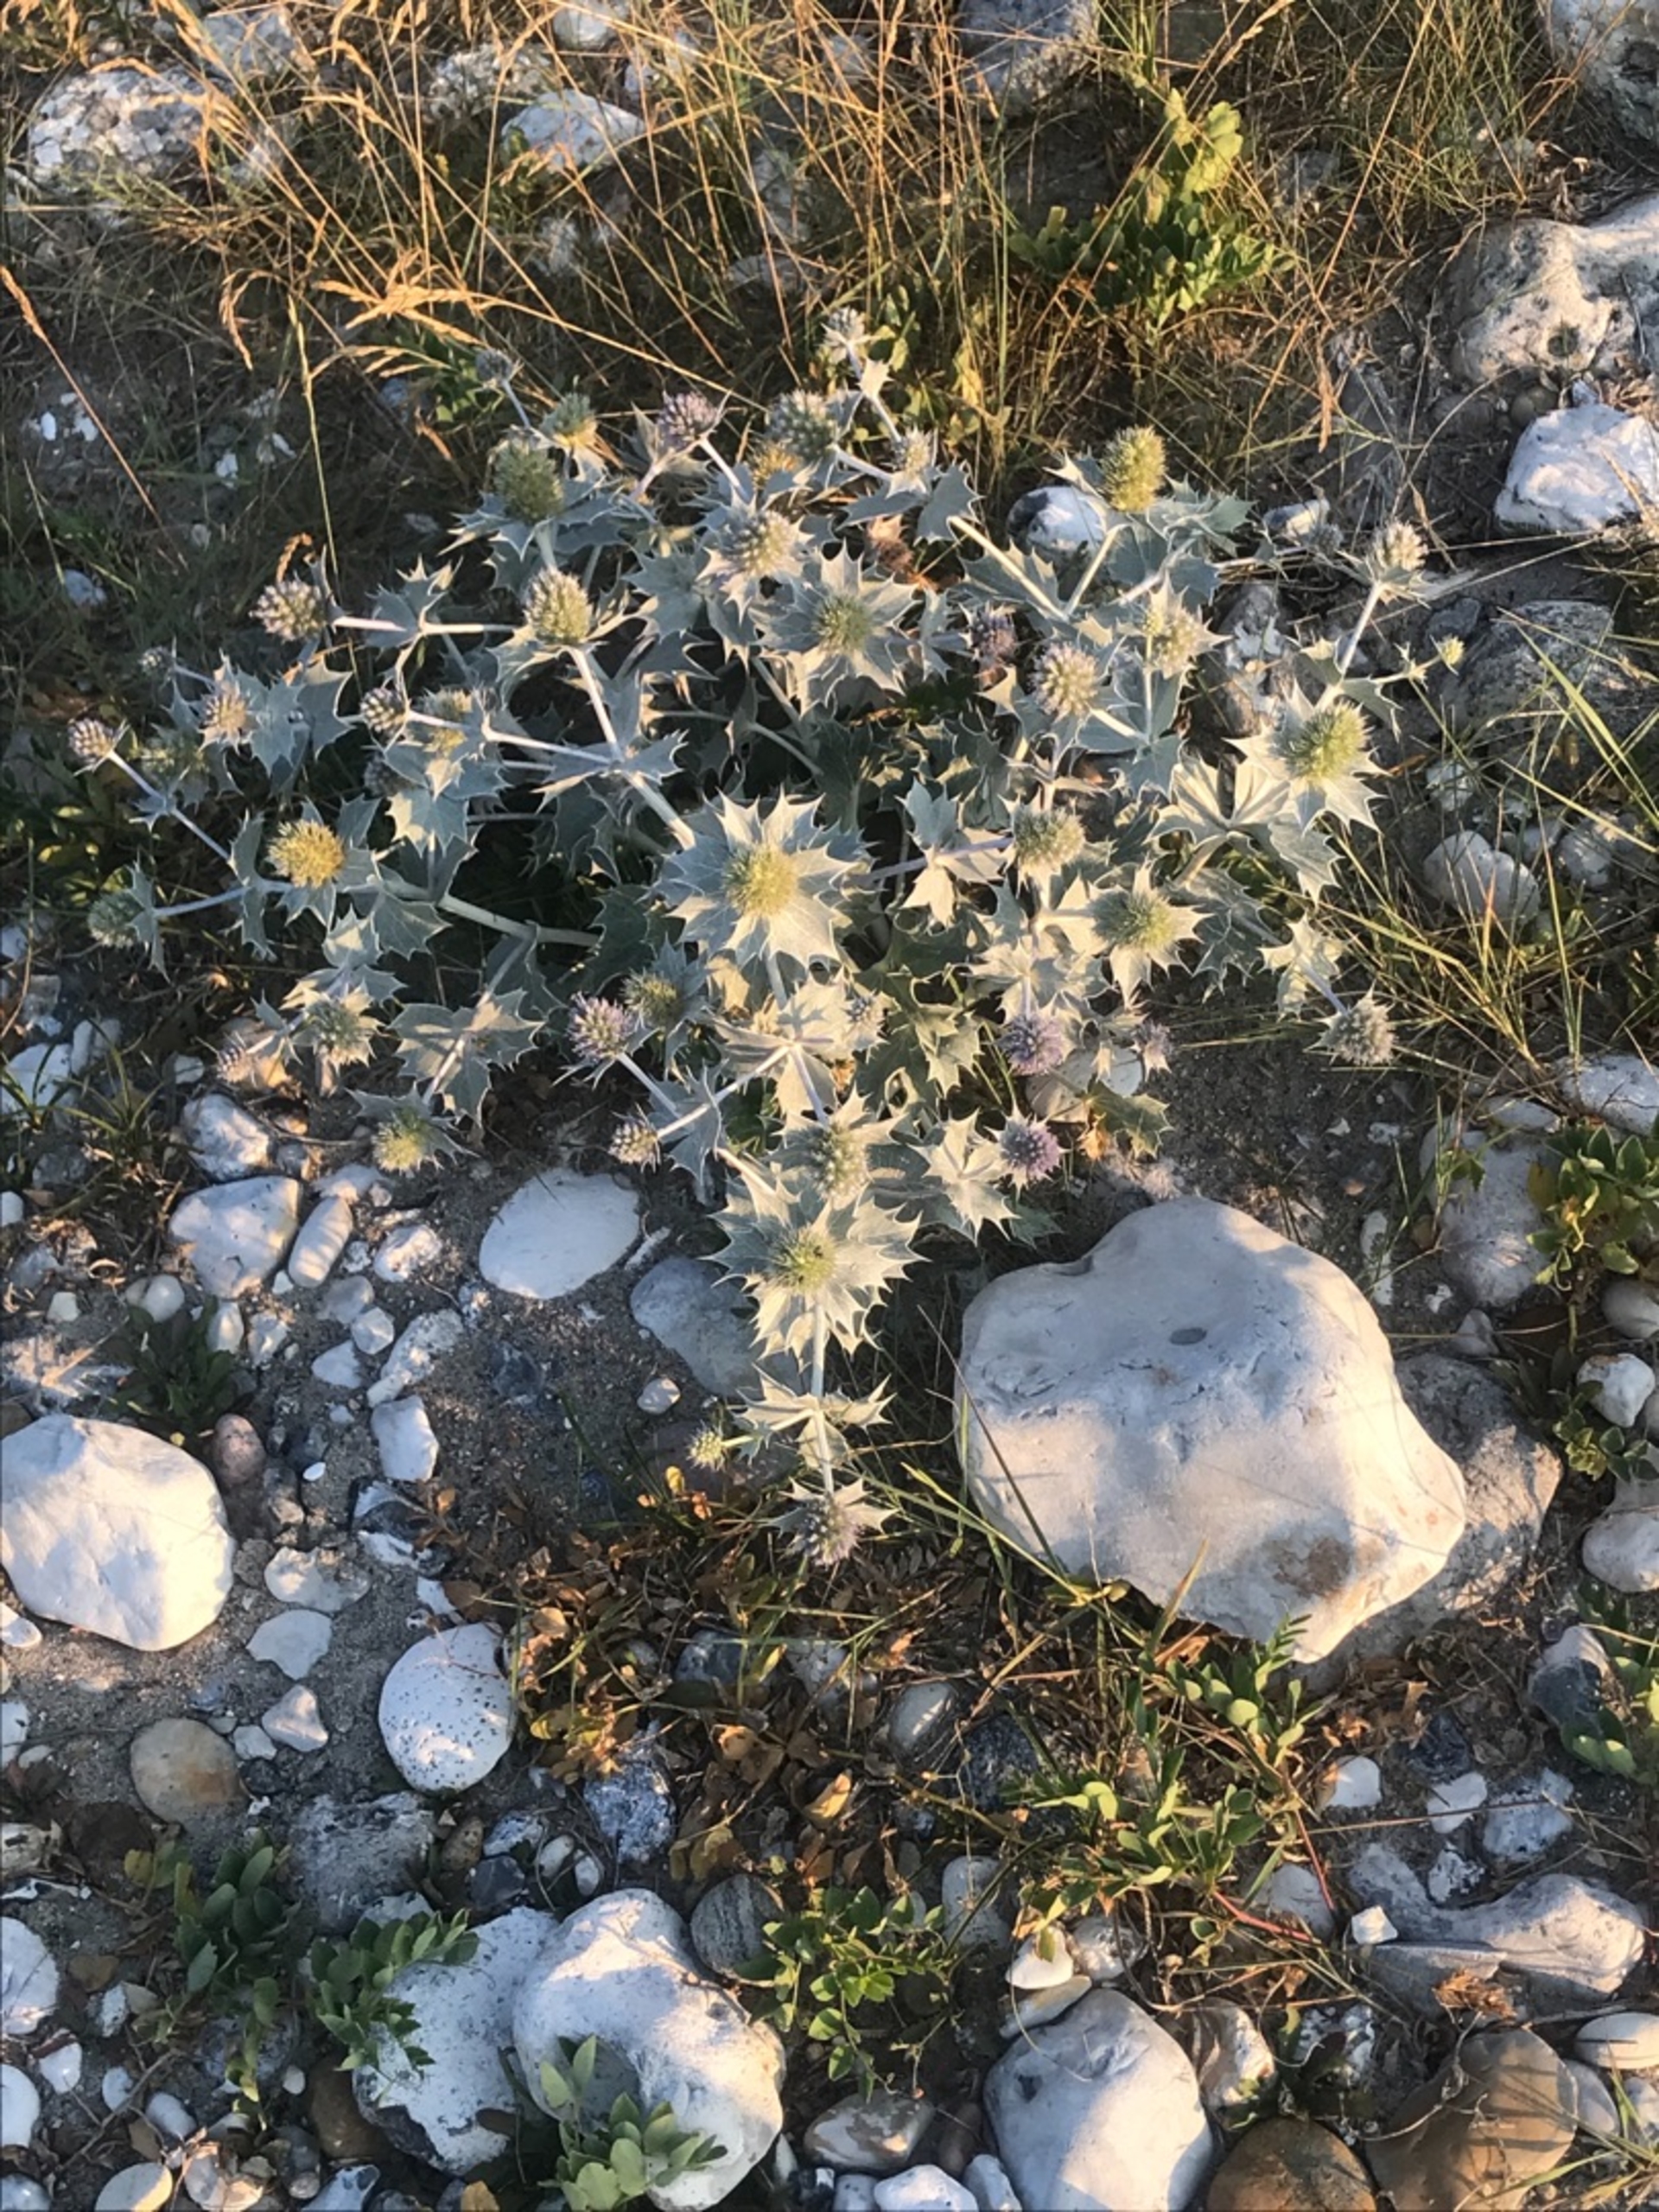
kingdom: Plantae
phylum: Tracheophyta
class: Magnoliopsida
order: Apiales
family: Apiaceae
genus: Eryngium
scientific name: Eryngium maritimum
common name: Strand-mandstro
